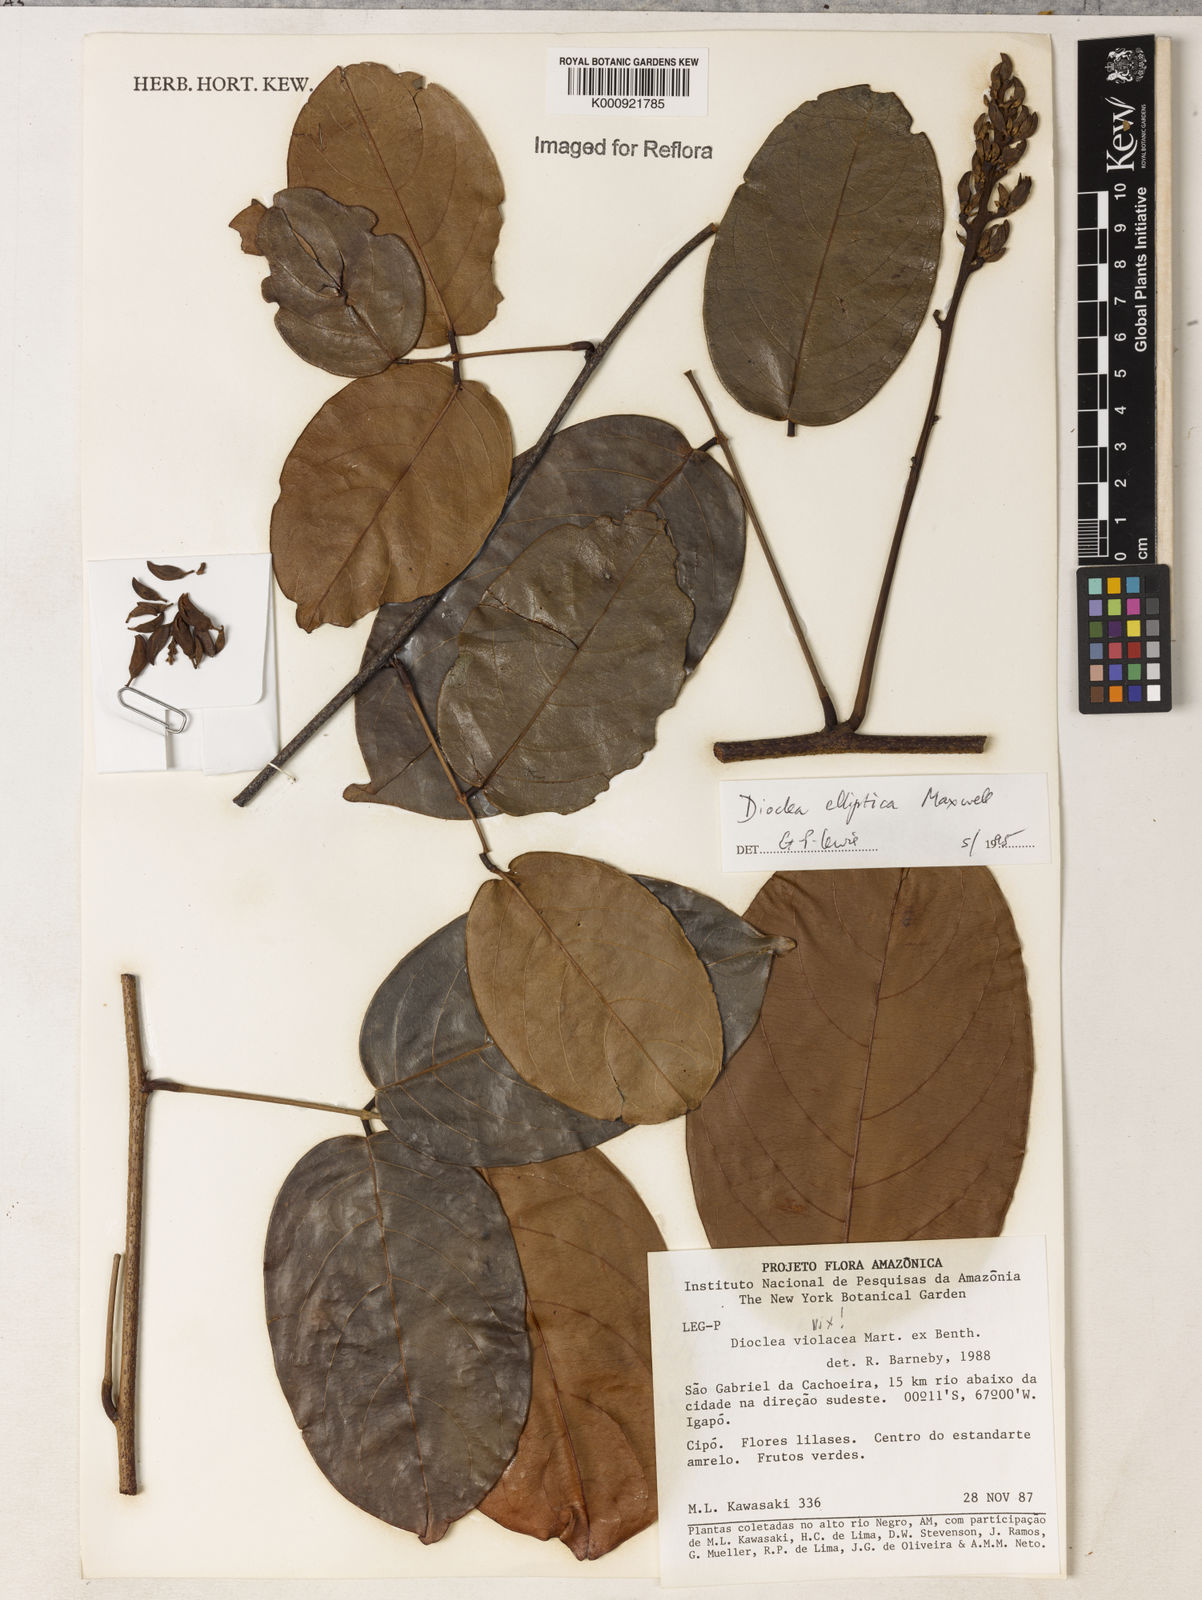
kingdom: Plantae
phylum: Tracheophyta
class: Magnoliopsida
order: Fabales
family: Fabaceae
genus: Macropsychanthus
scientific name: Macropsychanthus glaber
